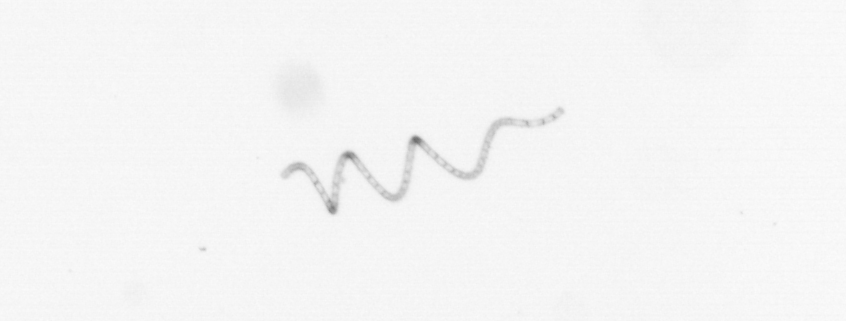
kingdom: Chromista
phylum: Ochrophyta
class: Bacillariophyceae
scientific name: Bacillariophyceae
